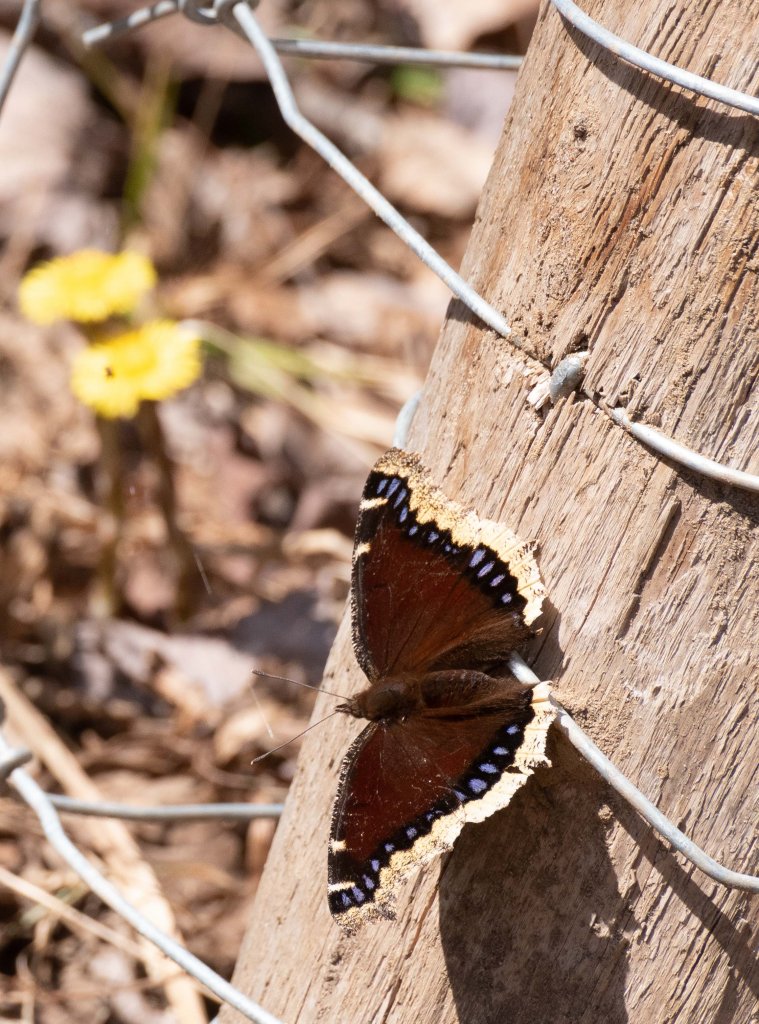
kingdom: Animalia
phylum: Arthropoda
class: Insecta
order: Lepidoptera
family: Nymphalidae
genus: Nymphalis
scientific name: Nymphalis antiopa
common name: Mourning Cloak
